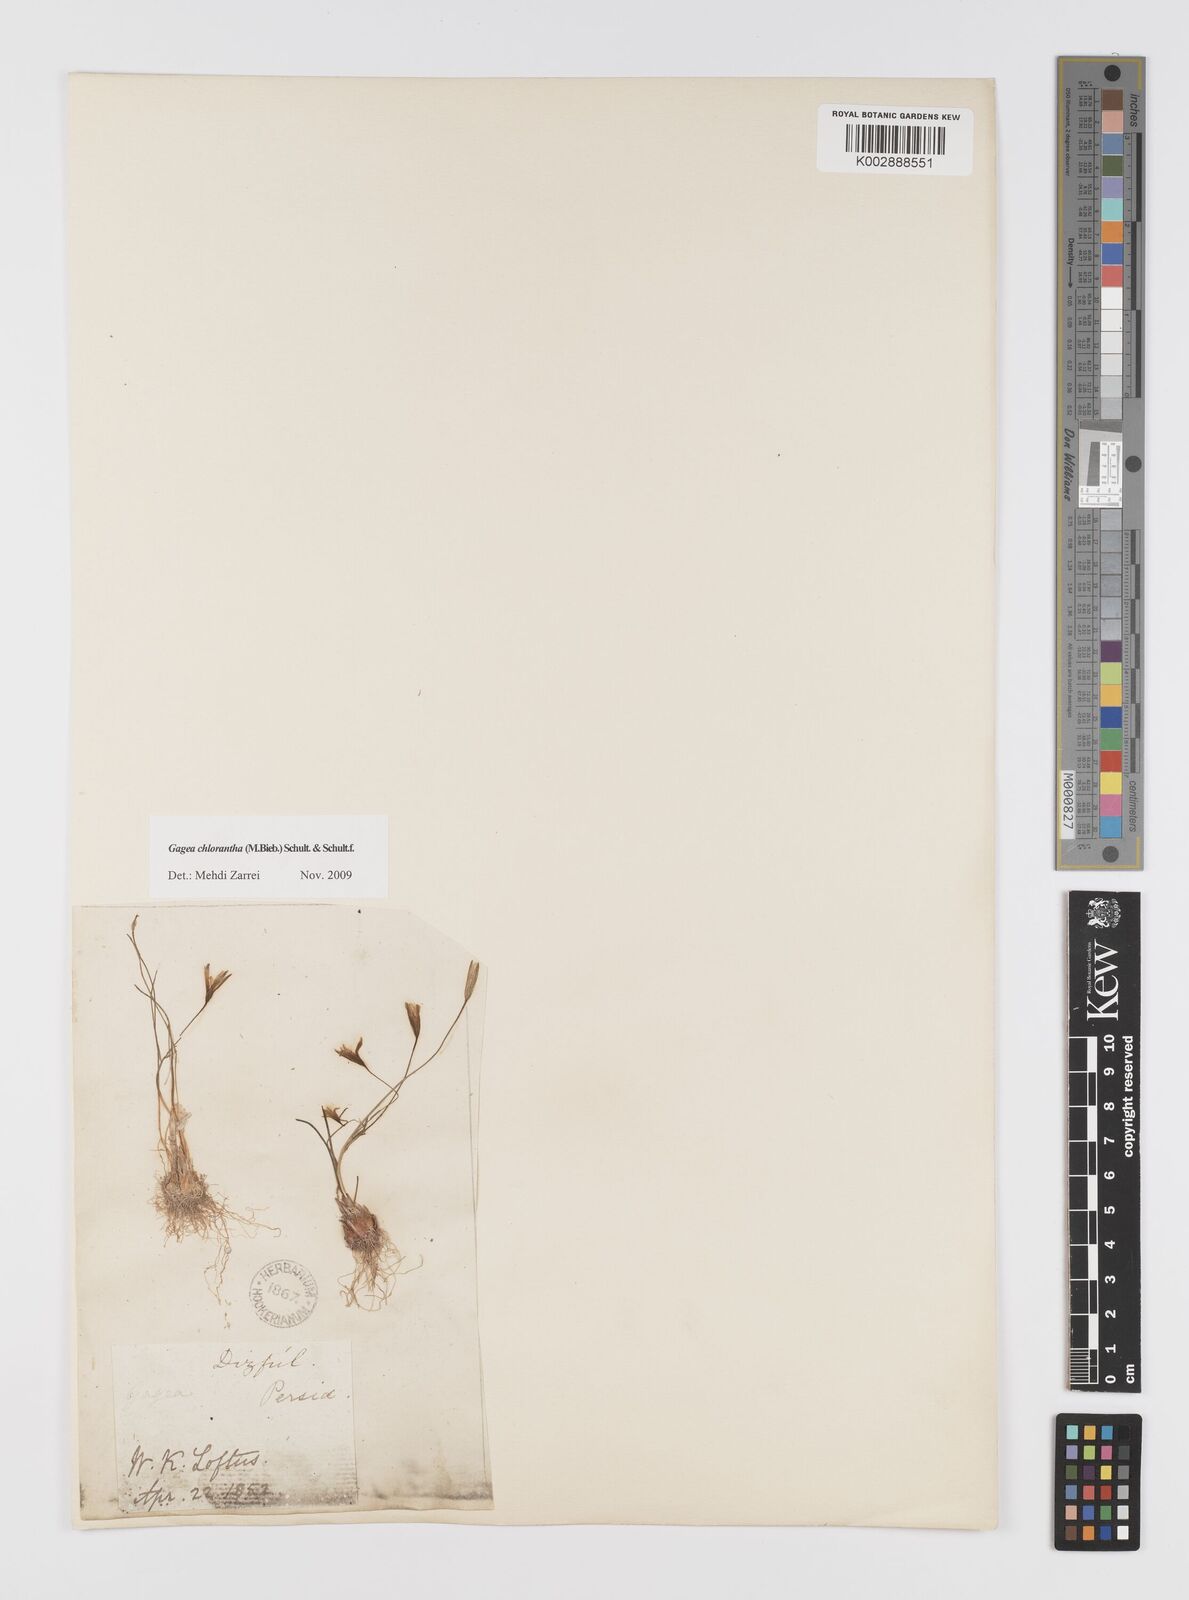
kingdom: Plantae
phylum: Tracheophyta
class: Liliopsida
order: Liliales
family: Liliaceae
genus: Gagea
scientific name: Gagea chlorantha
